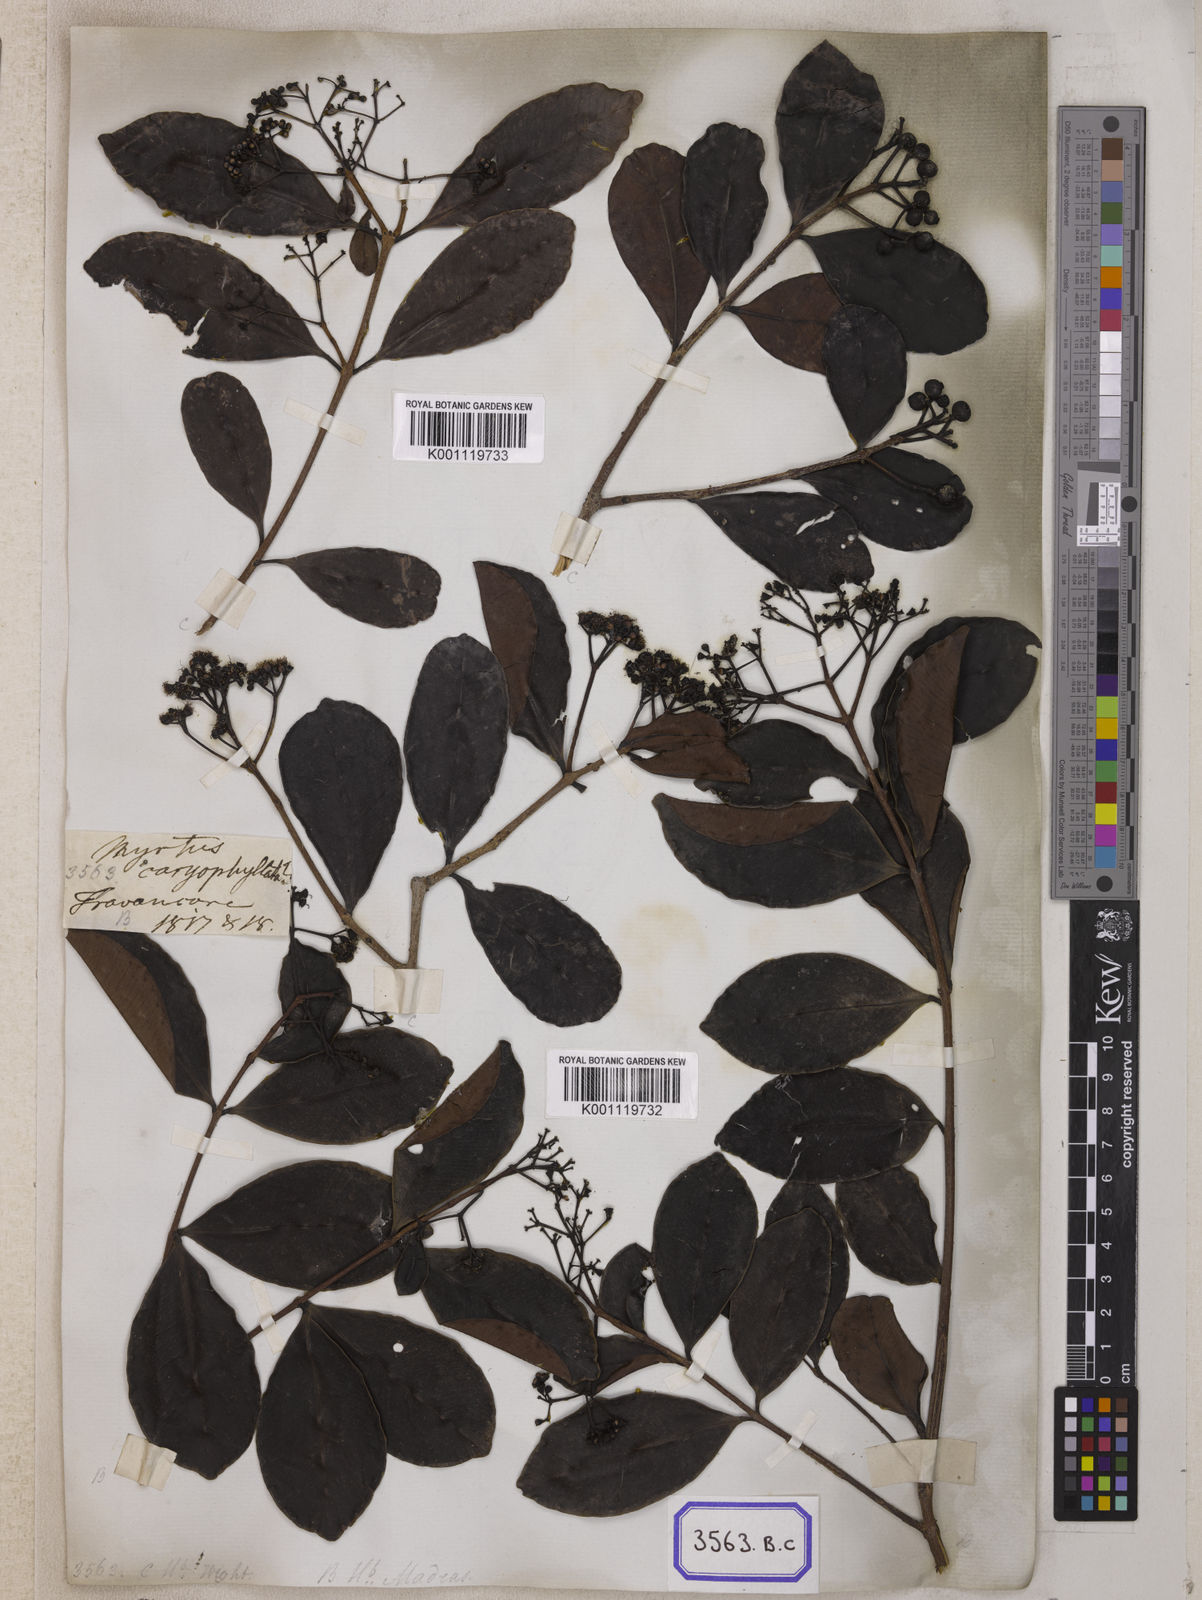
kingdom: Plantae
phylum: Tracheophyta
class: Magnoliopsida
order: Myrtales
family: Myrtaceae
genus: Syzygium
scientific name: Syzygium caryophyllatum
